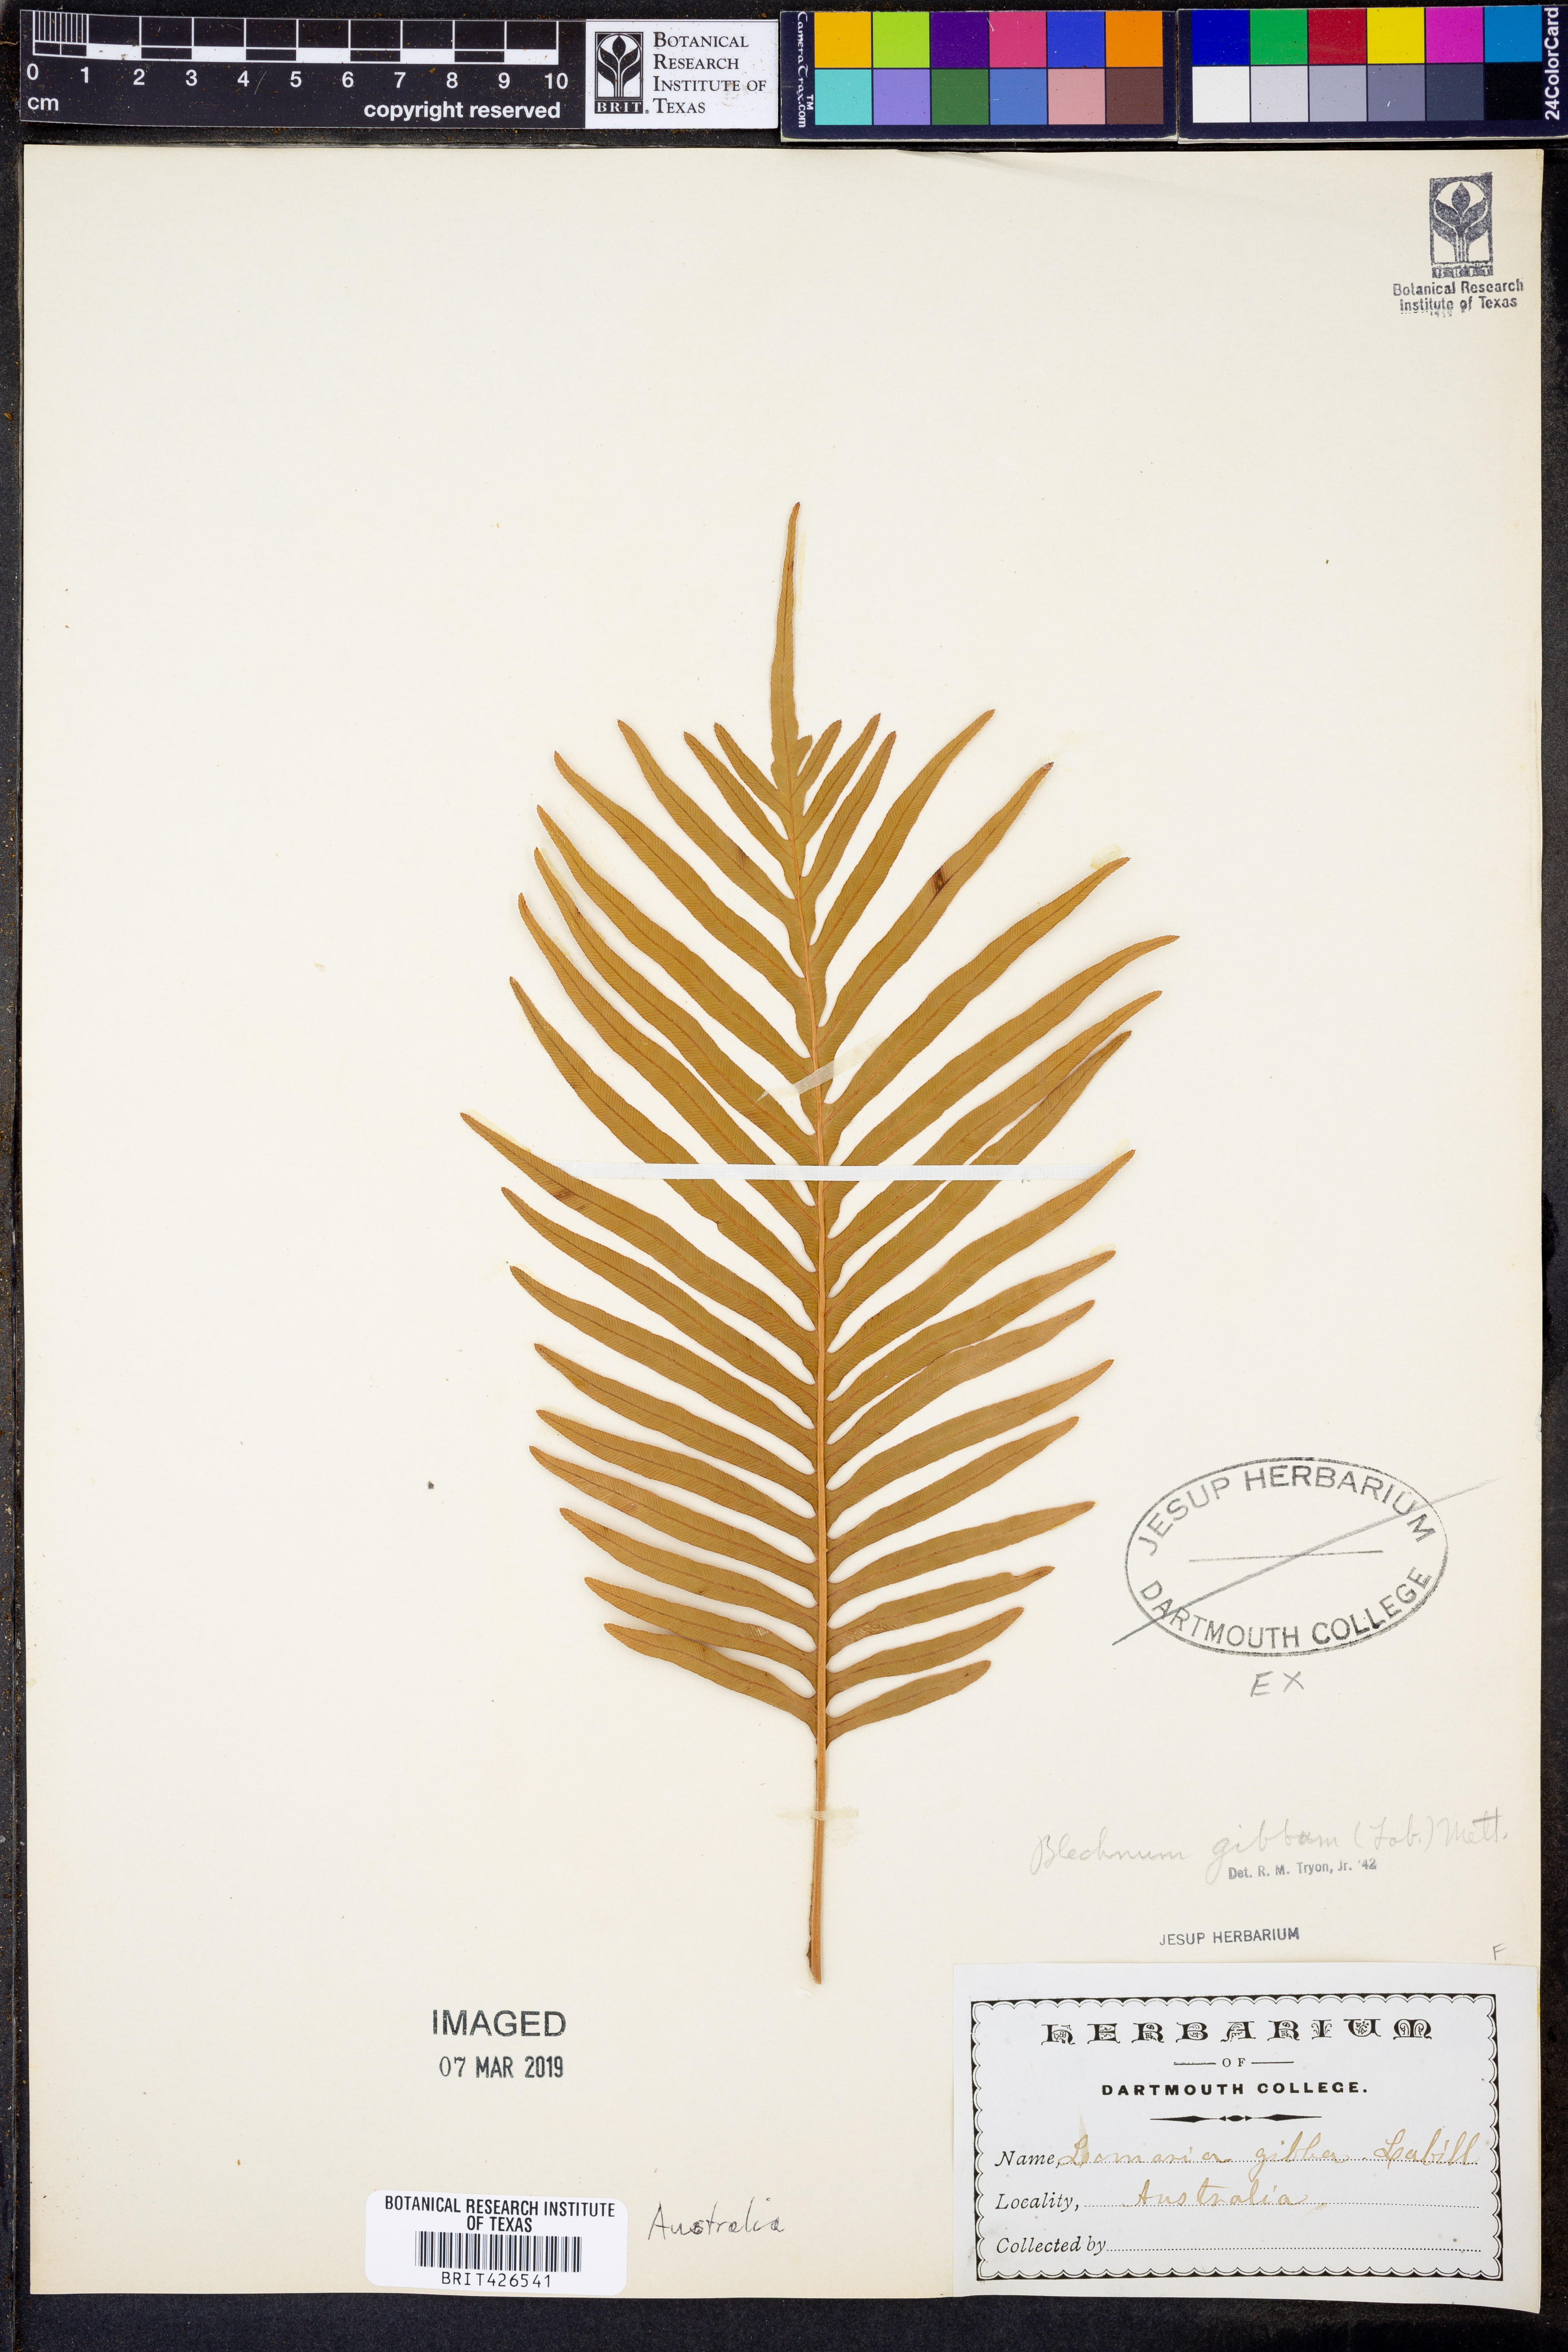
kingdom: Plantae
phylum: Tracheophyta
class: Polypodiopsida
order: Polypodiales
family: Blechnaceae
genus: Oceaniopteris
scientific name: Oceaniopteris gibba
